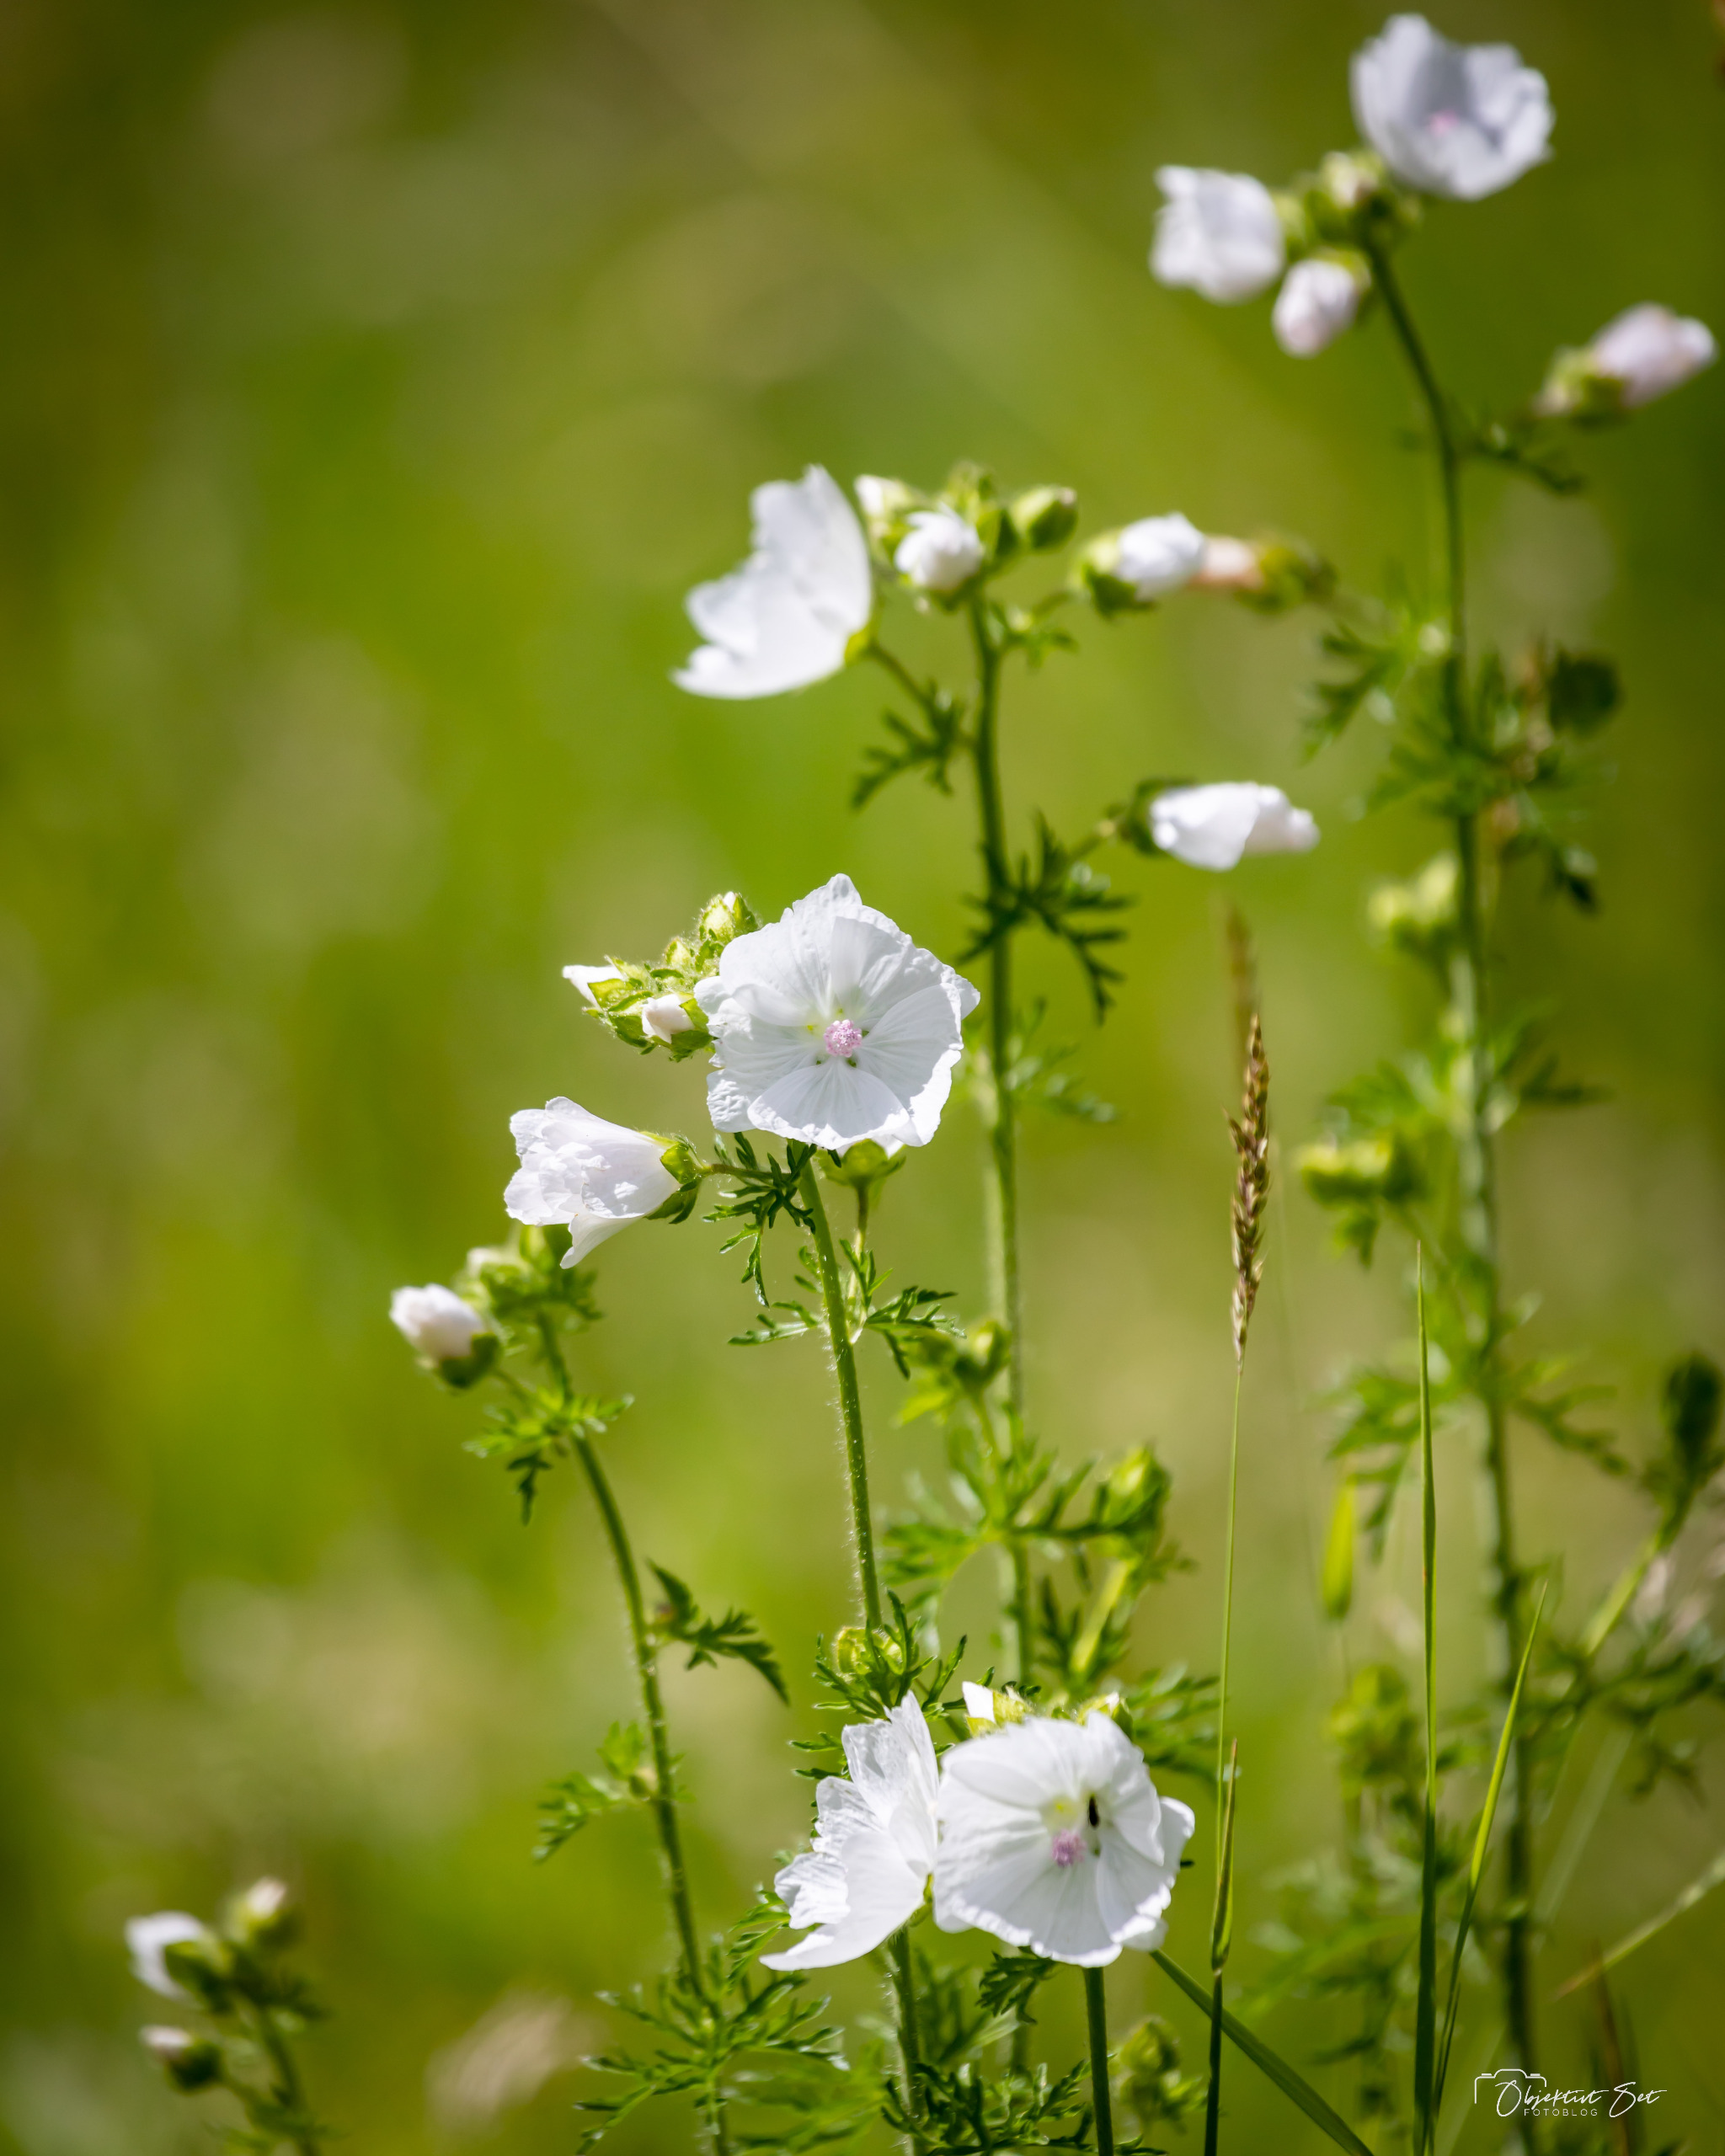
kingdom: Plantae
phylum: Tracheophyta
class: Magnoliopsida
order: Malvales
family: Malvaceae
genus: Malva
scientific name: Malva moschata
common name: Moskus-katost
